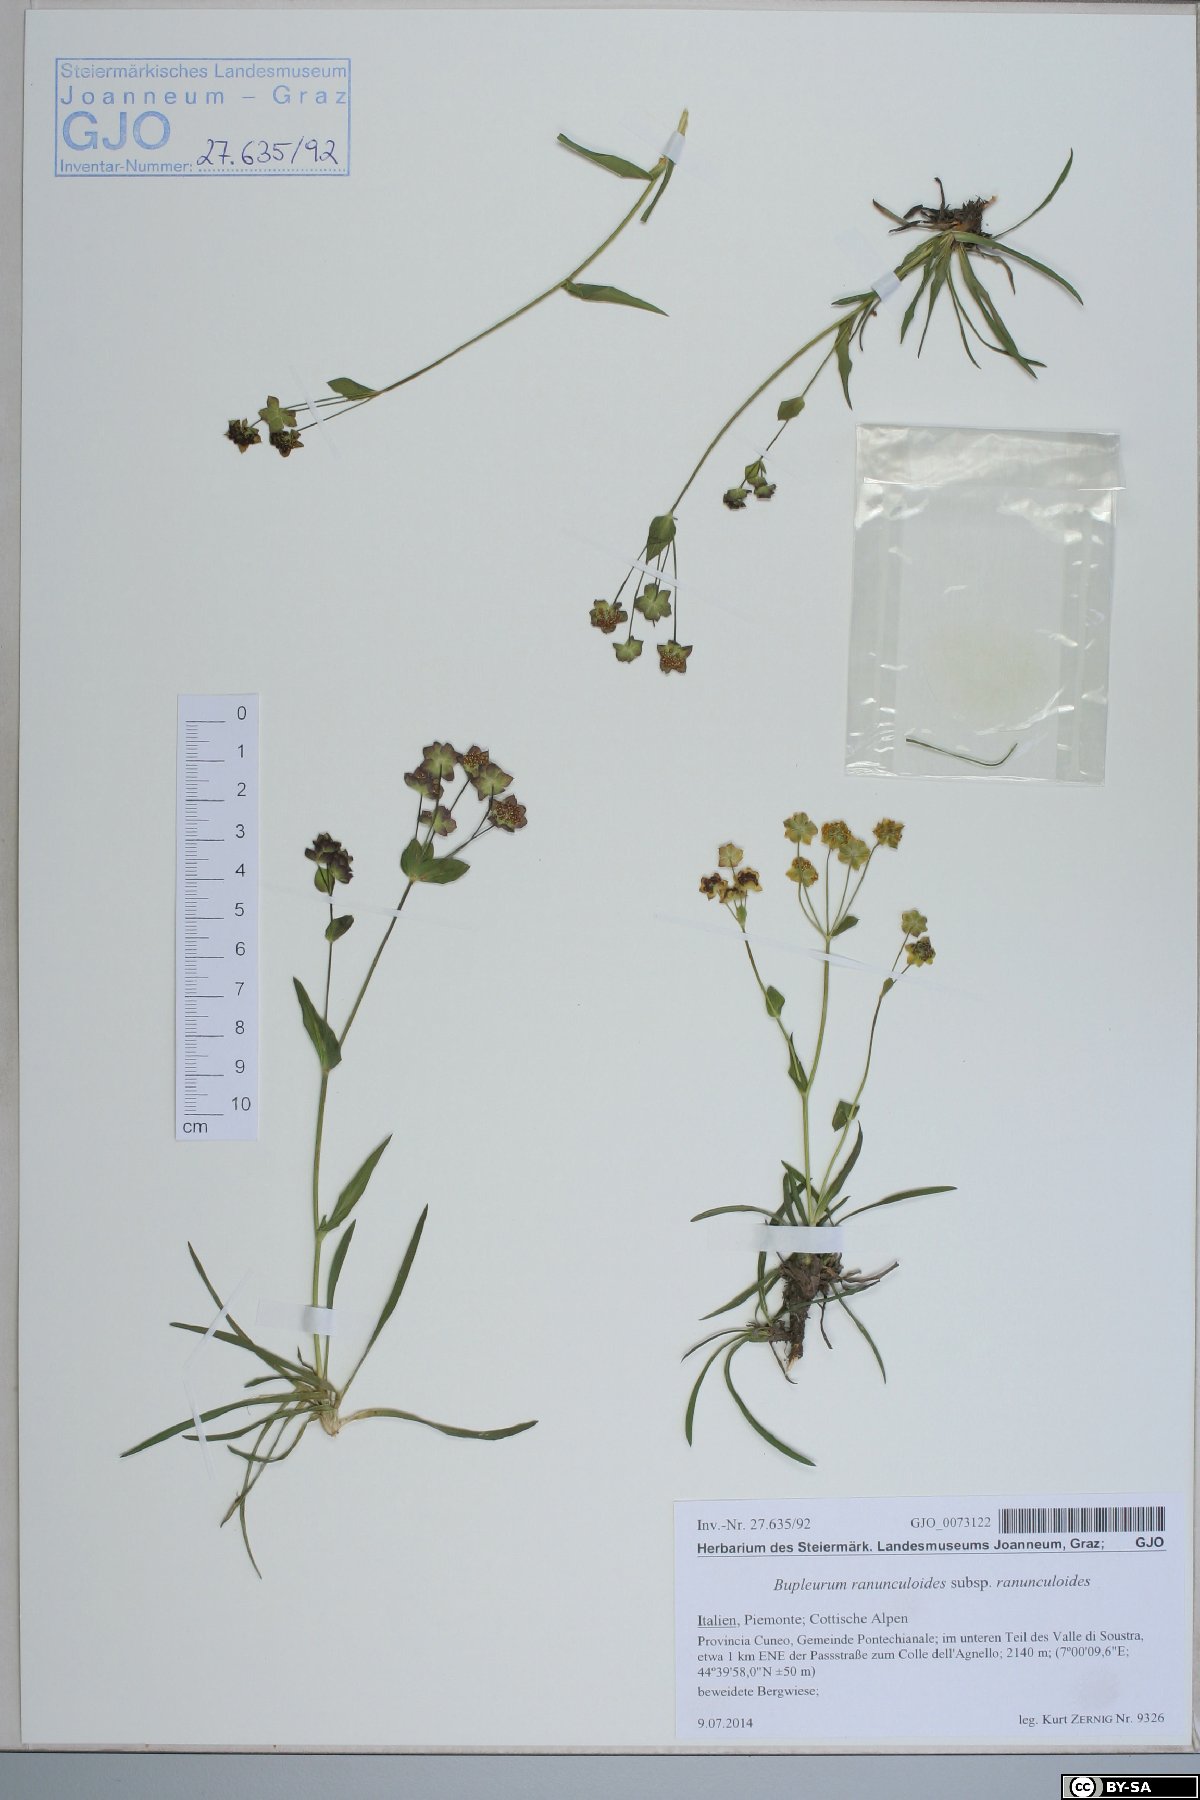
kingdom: Plantae
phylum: Tracheophyta
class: Magnoliopsida
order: Apiales
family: Apiaceae
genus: Bupleurum
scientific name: Bupleurum ranunculoides
